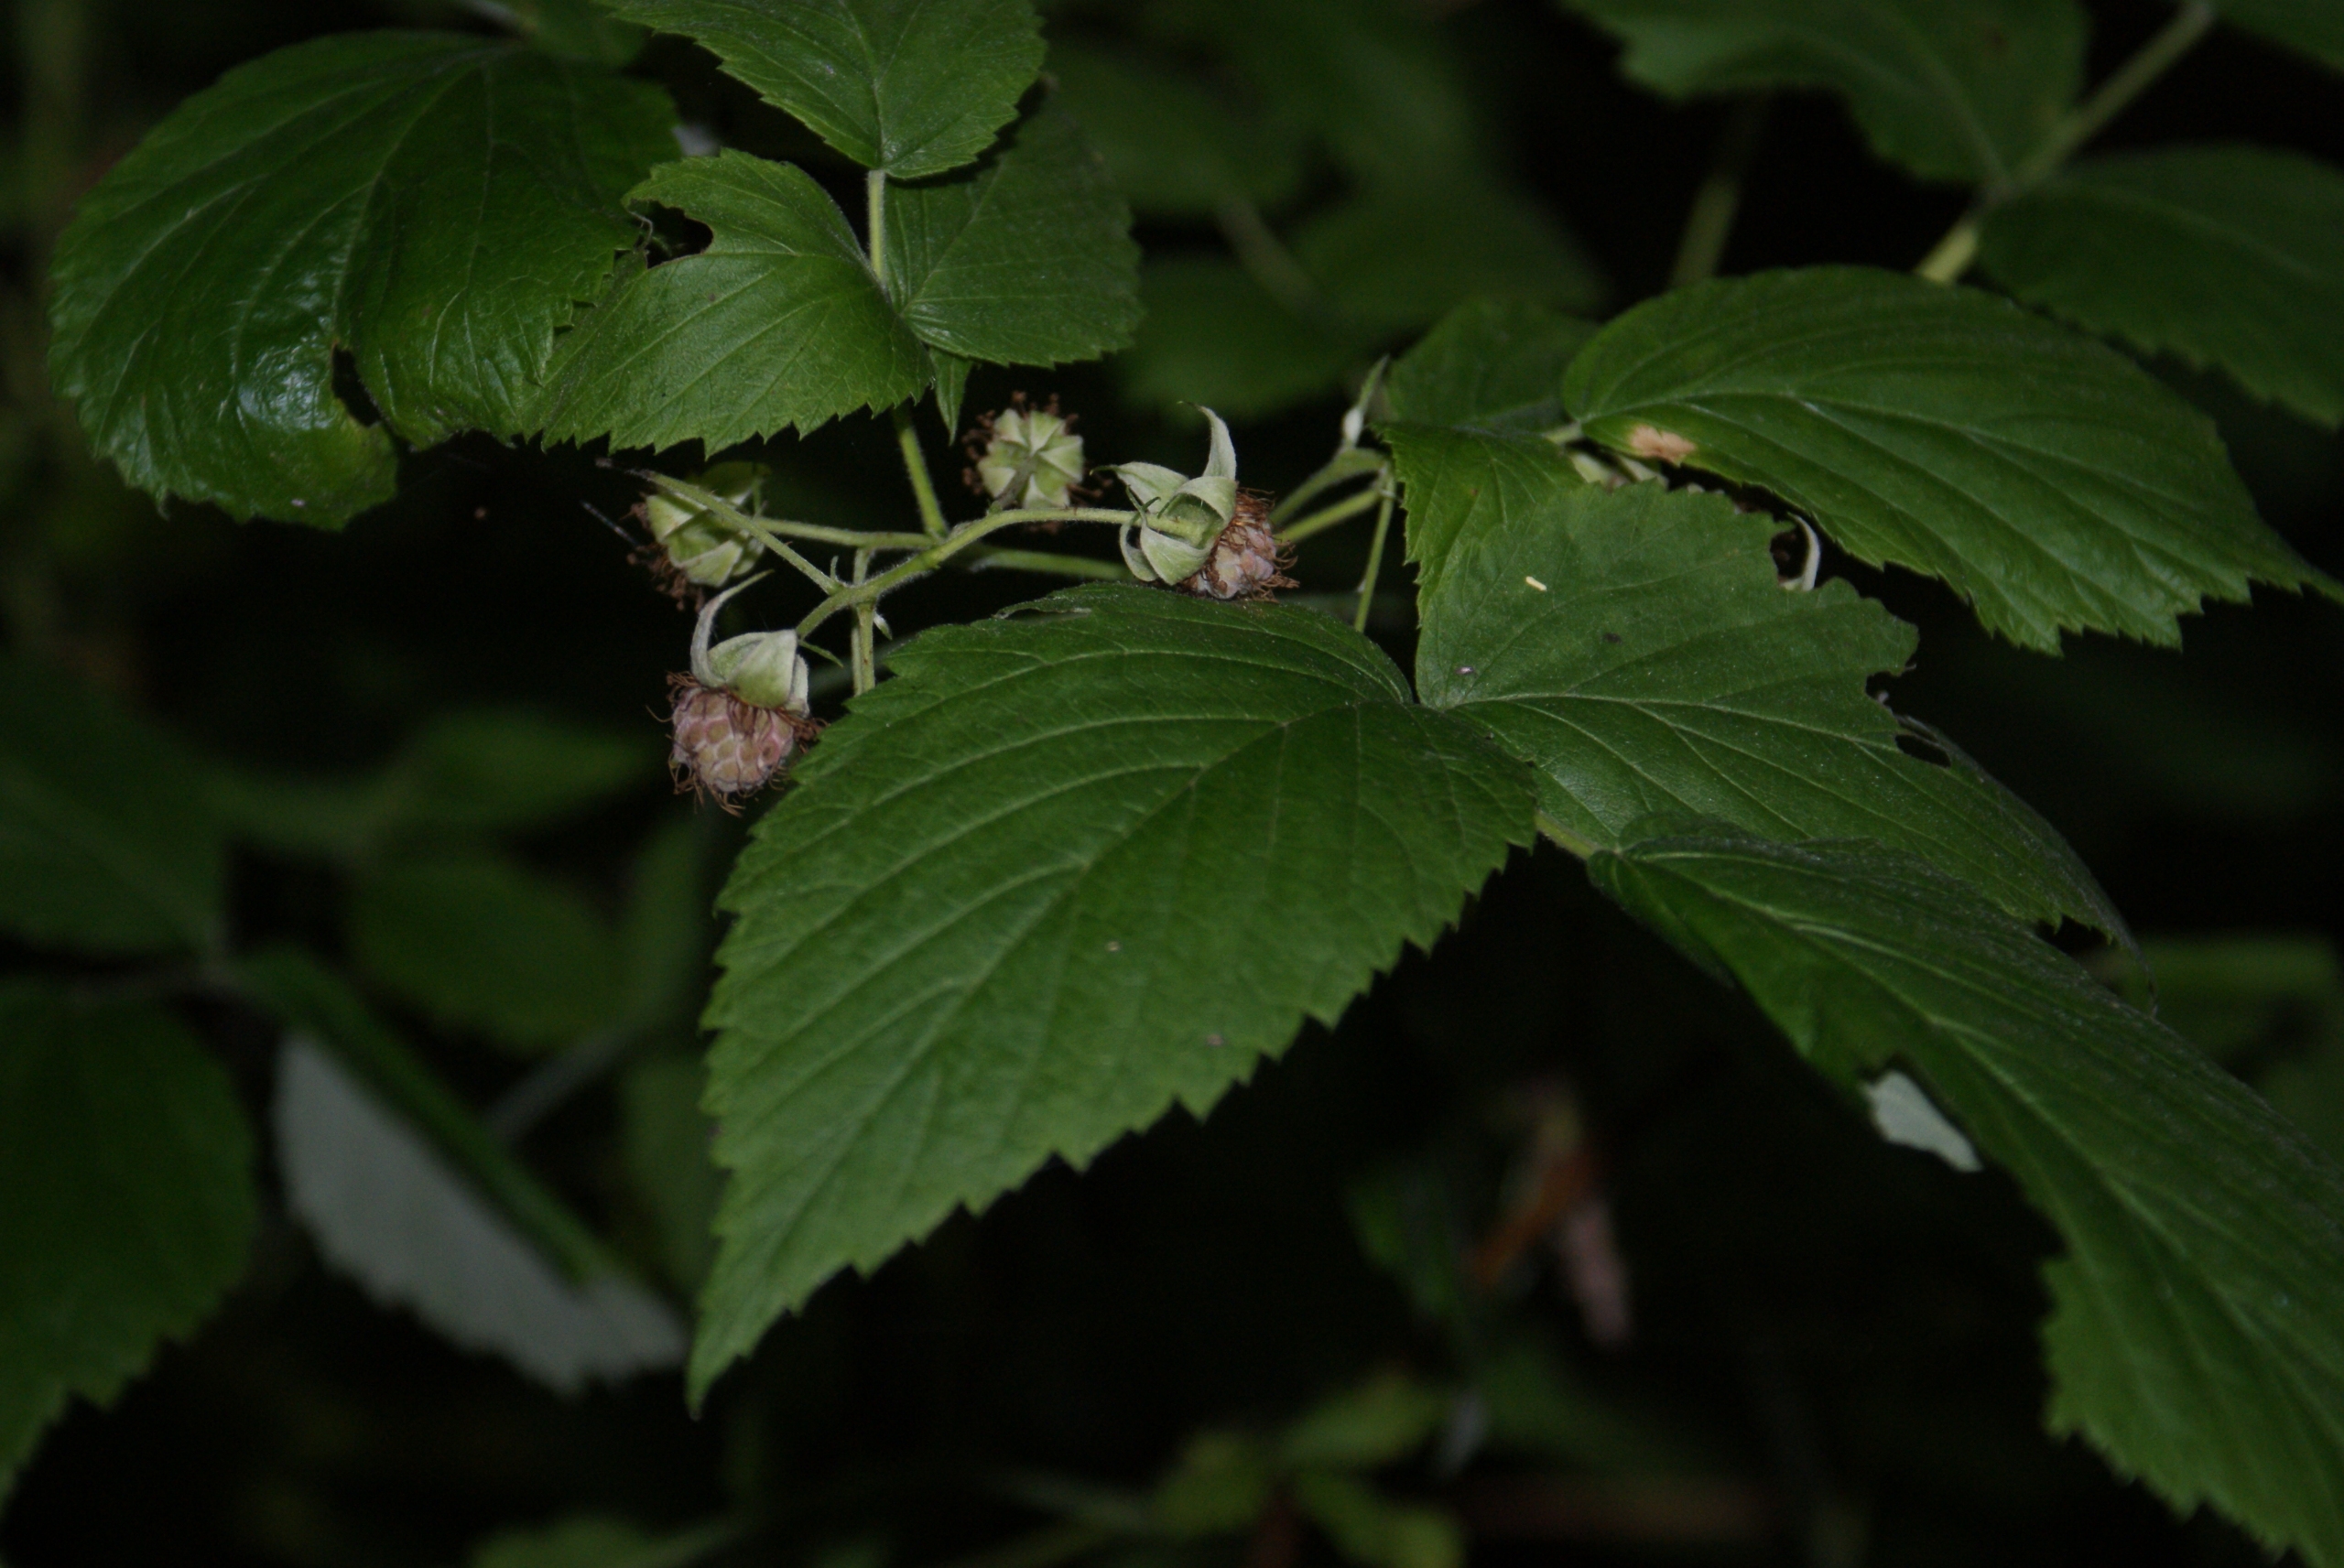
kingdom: Plantae
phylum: Tracheophyta
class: Magnoliopsida
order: Rosales
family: Rosaceae
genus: Rubus
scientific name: Rubus idaeus
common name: Hindbær
